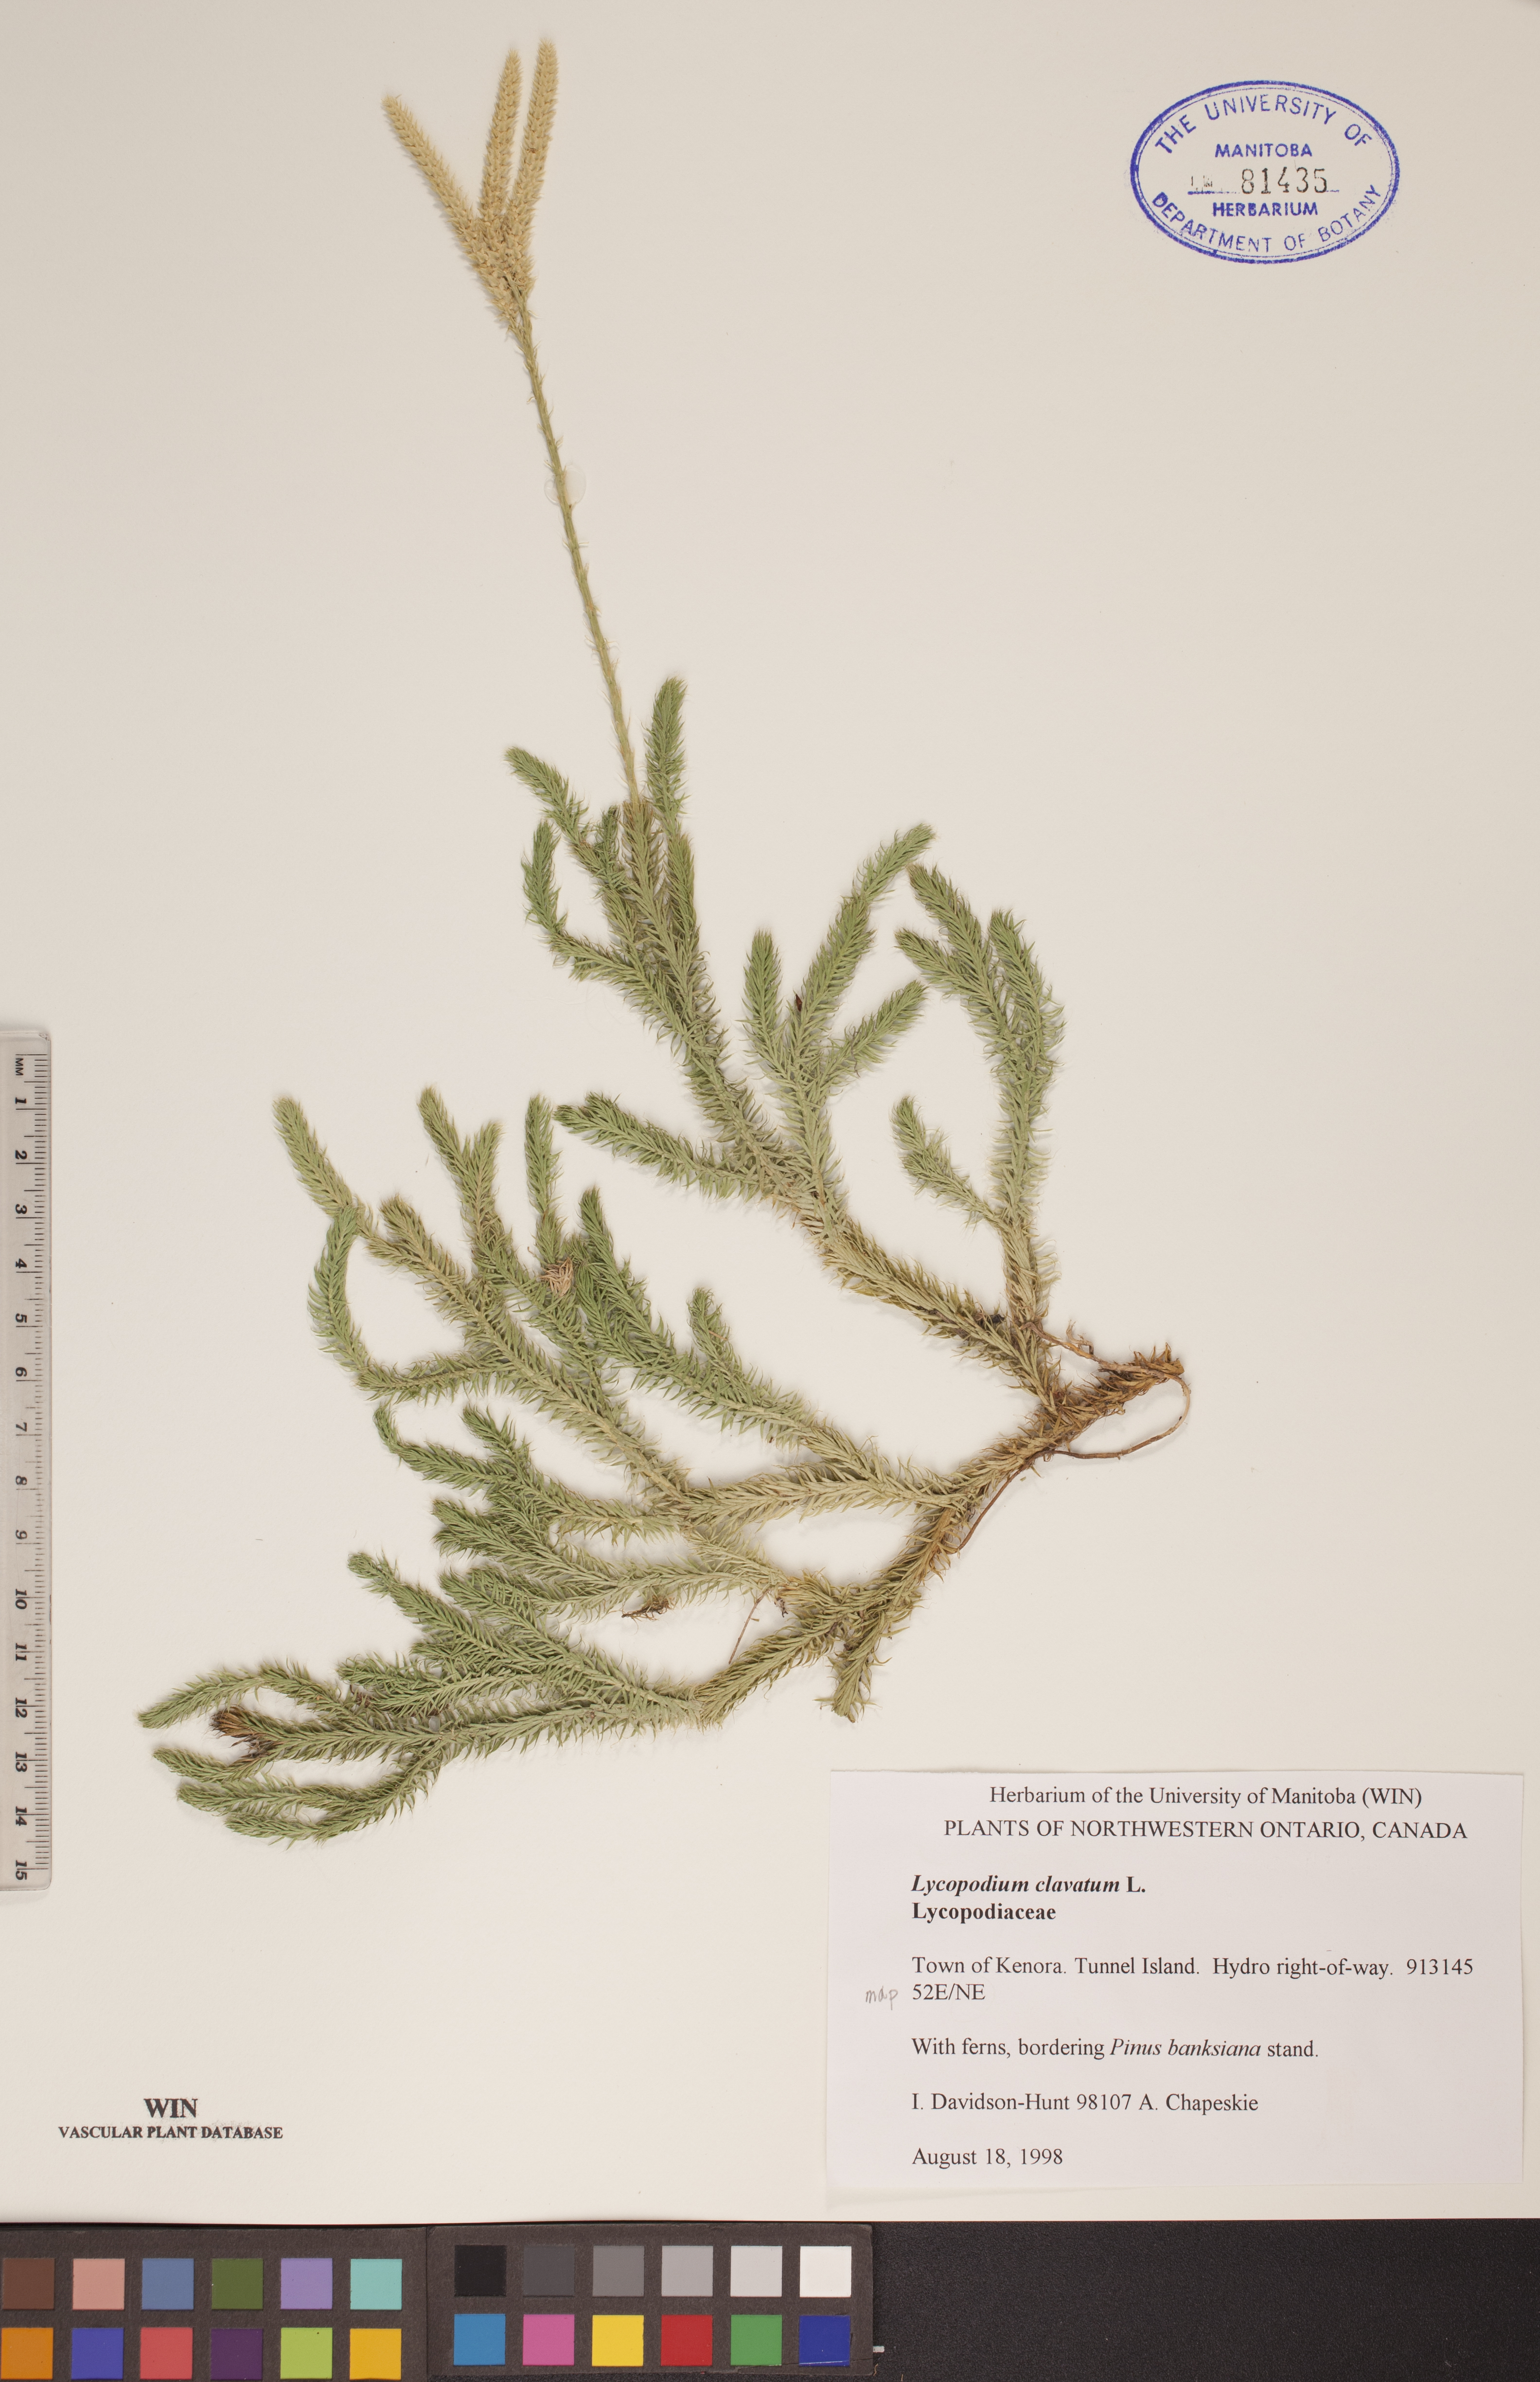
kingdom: Plantae
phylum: Tracheophyta
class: Lycopodiopsida
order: Lycopodiales
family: Lycopodiaceae
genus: Lycopodium
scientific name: Lycopodium clavatum
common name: Stag's-horn clubmoss
